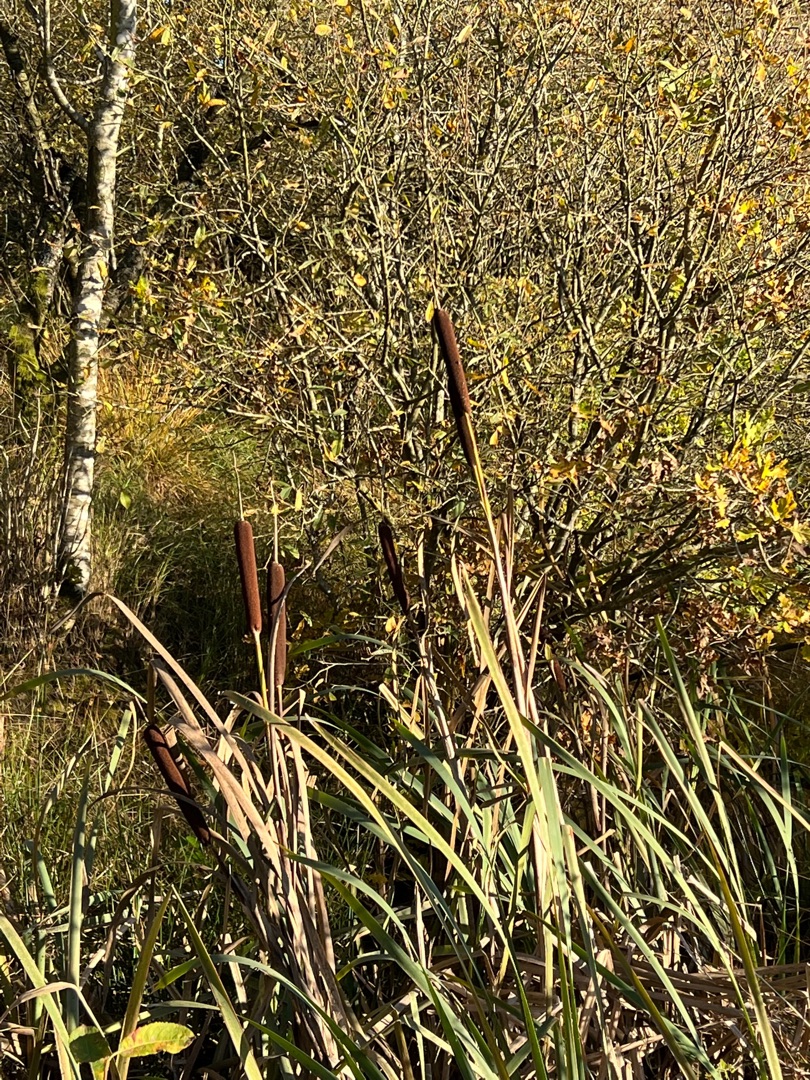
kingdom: Plantae
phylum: Tracheophyta
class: Liliopsida
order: Poales
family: Typhaceae
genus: Typha
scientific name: Typha latifolia
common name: Bredbladet dunhammer
